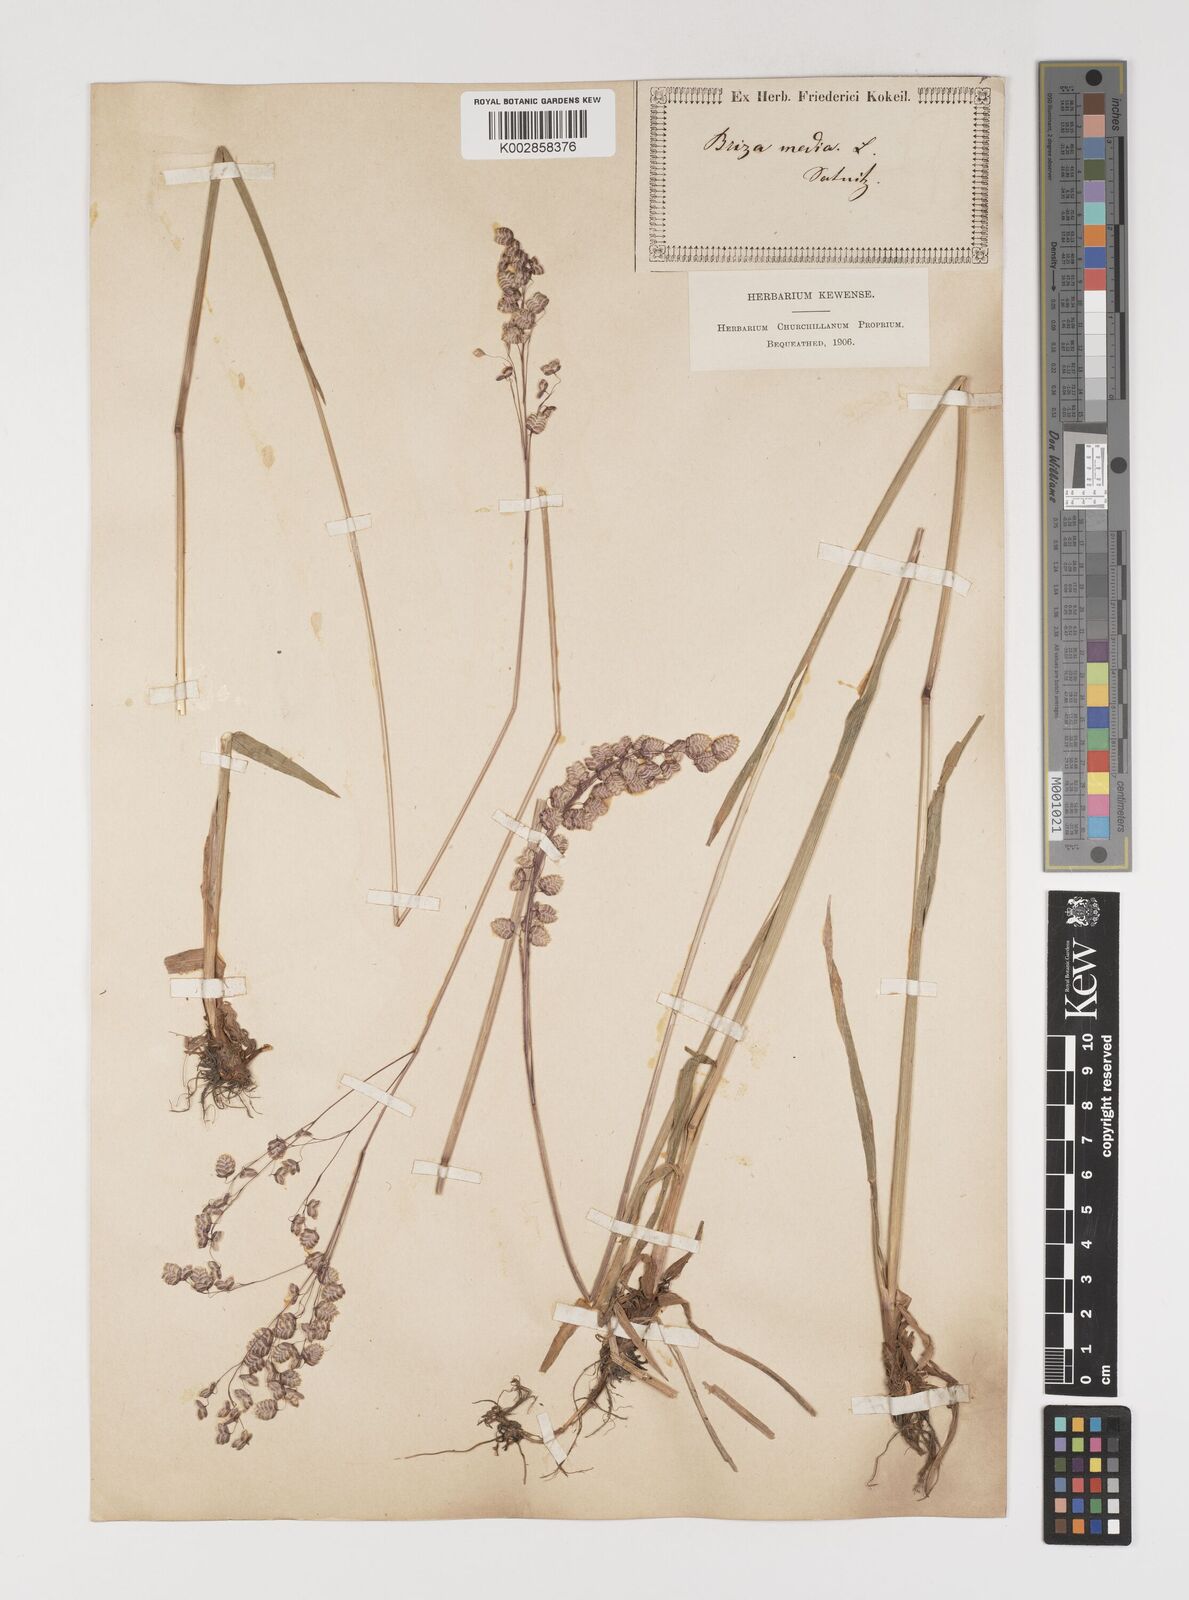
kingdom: Plantae
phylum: Tracheophyta
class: Liliopsida
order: Poales
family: Poaceae
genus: Briza
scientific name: Briza media
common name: Quaking grass
